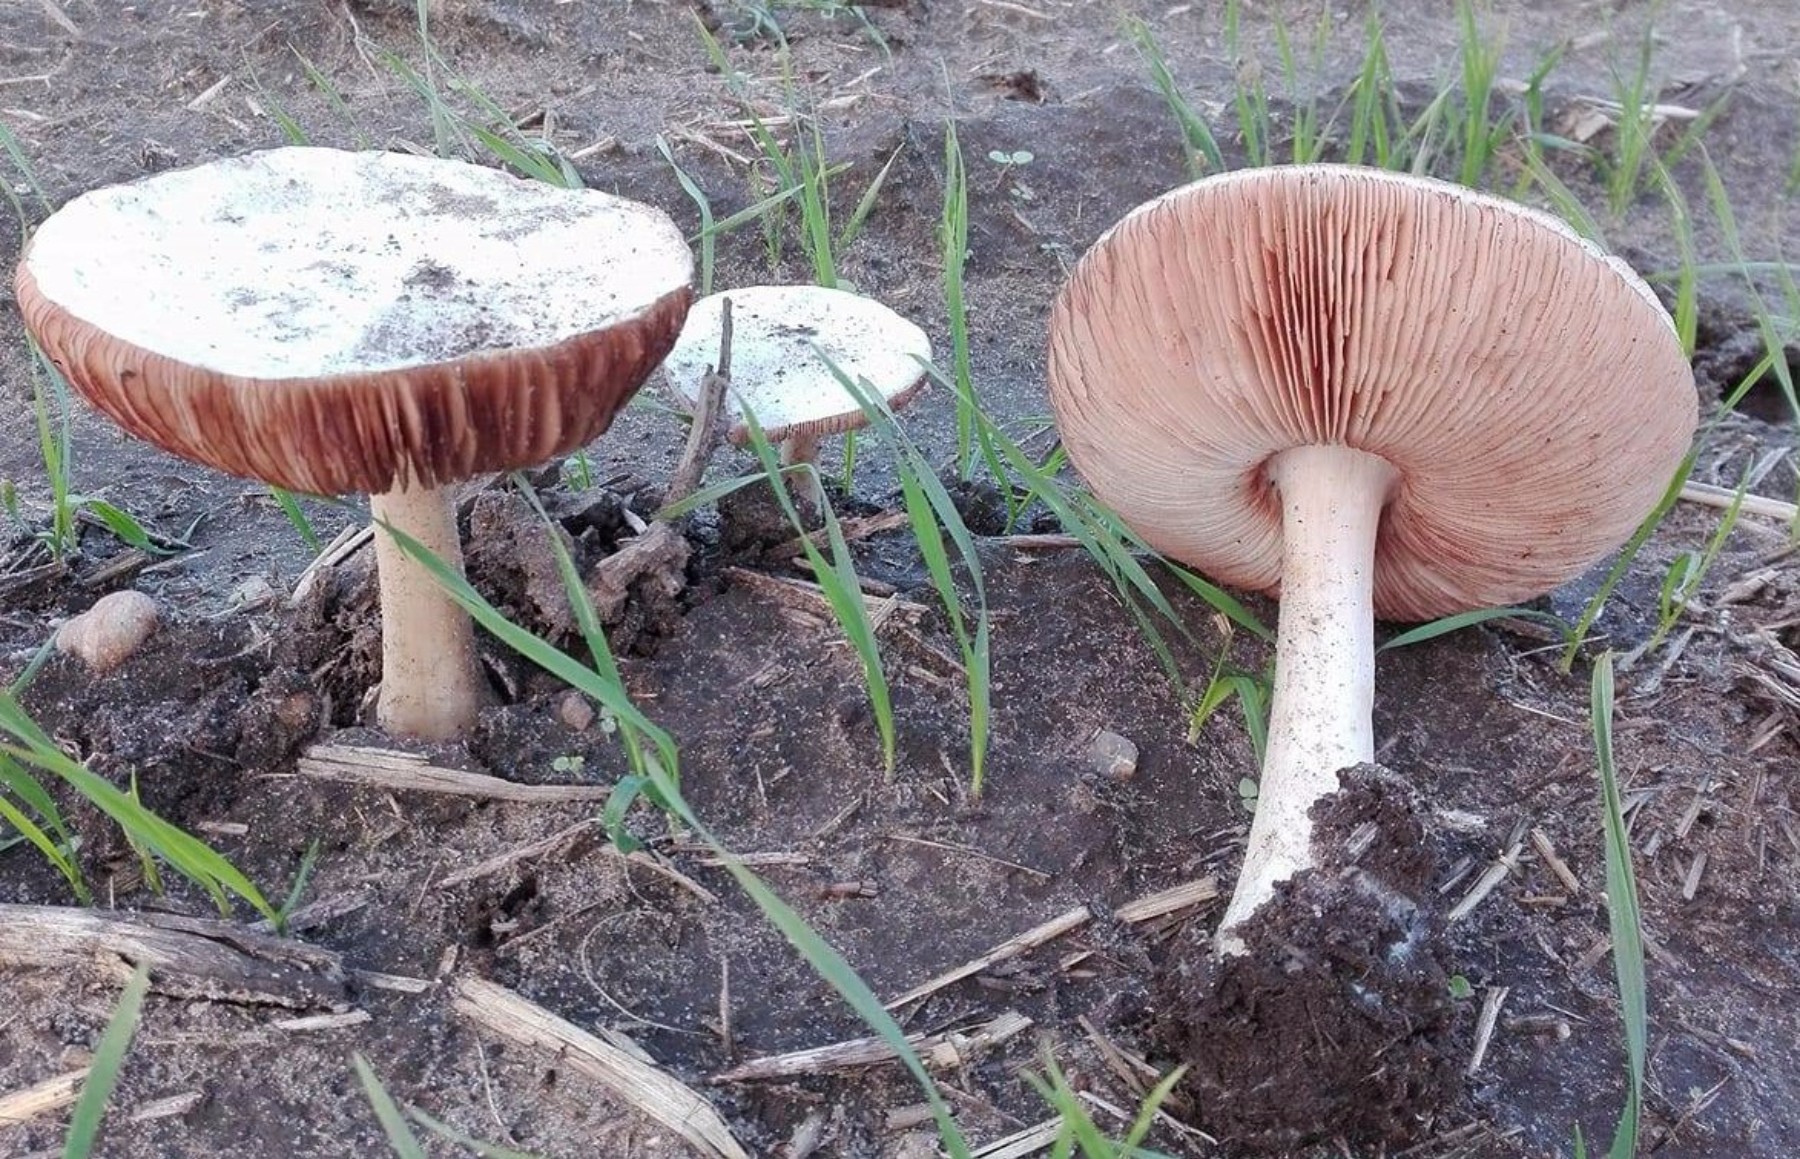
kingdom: Fungi
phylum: Basidiomycota
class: Agaricomycetes
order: Agaricales
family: Pluteaceae
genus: Volvopluteus
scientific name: Volvopluteus gloiocephalus
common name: høj posesvamp
